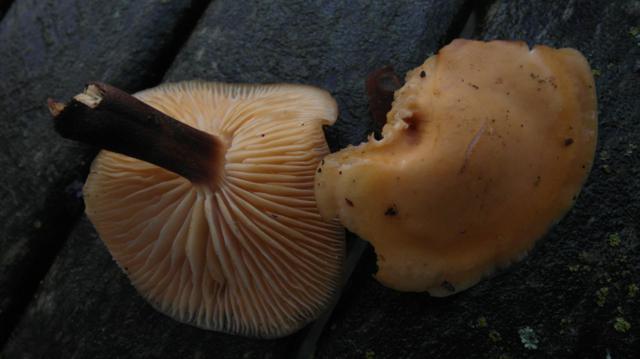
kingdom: Fungi
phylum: Basidiomycota
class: Agaricomycetes
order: Agaricales
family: Physalacriaceae
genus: Flammulina
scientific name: Flammulina elastica
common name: pile-fløjlsfod
